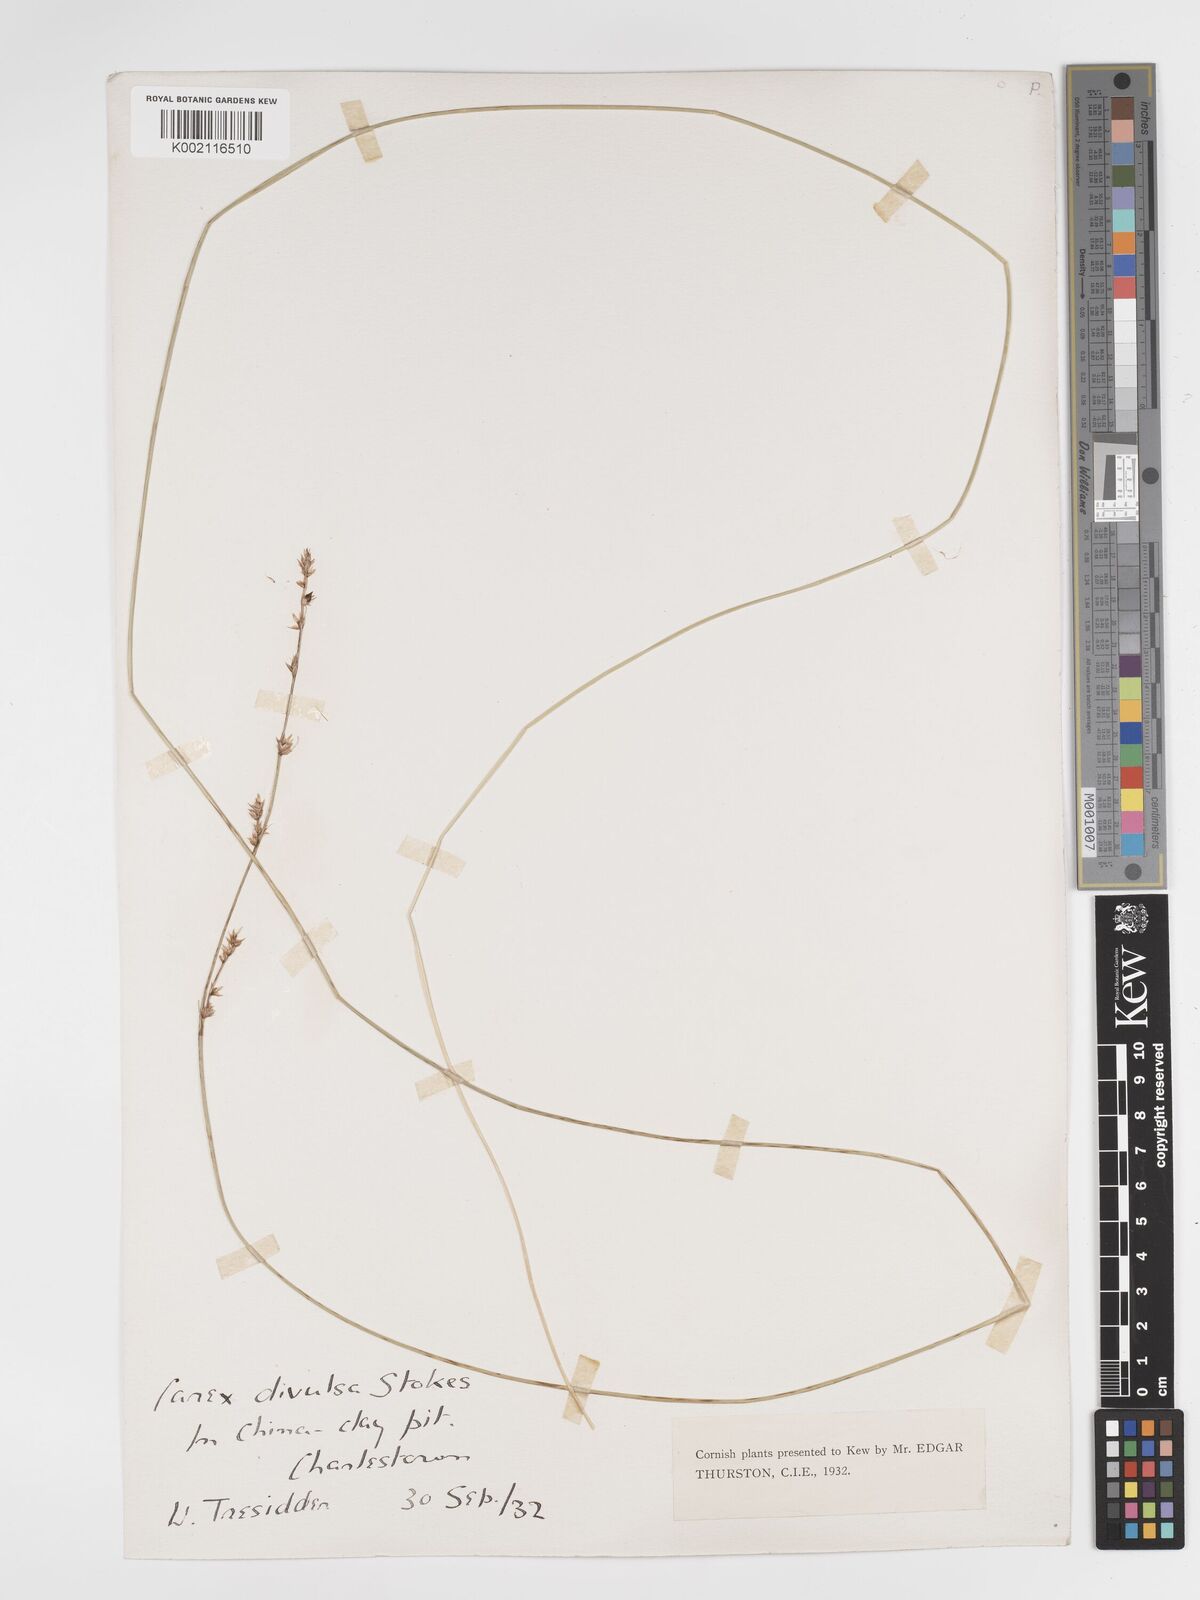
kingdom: Plantae
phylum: Tracheophyta
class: Liliopsida
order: Poales
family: Cyperaceae
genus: Carex
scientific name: Carex divulsa
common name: Grassland sedge
